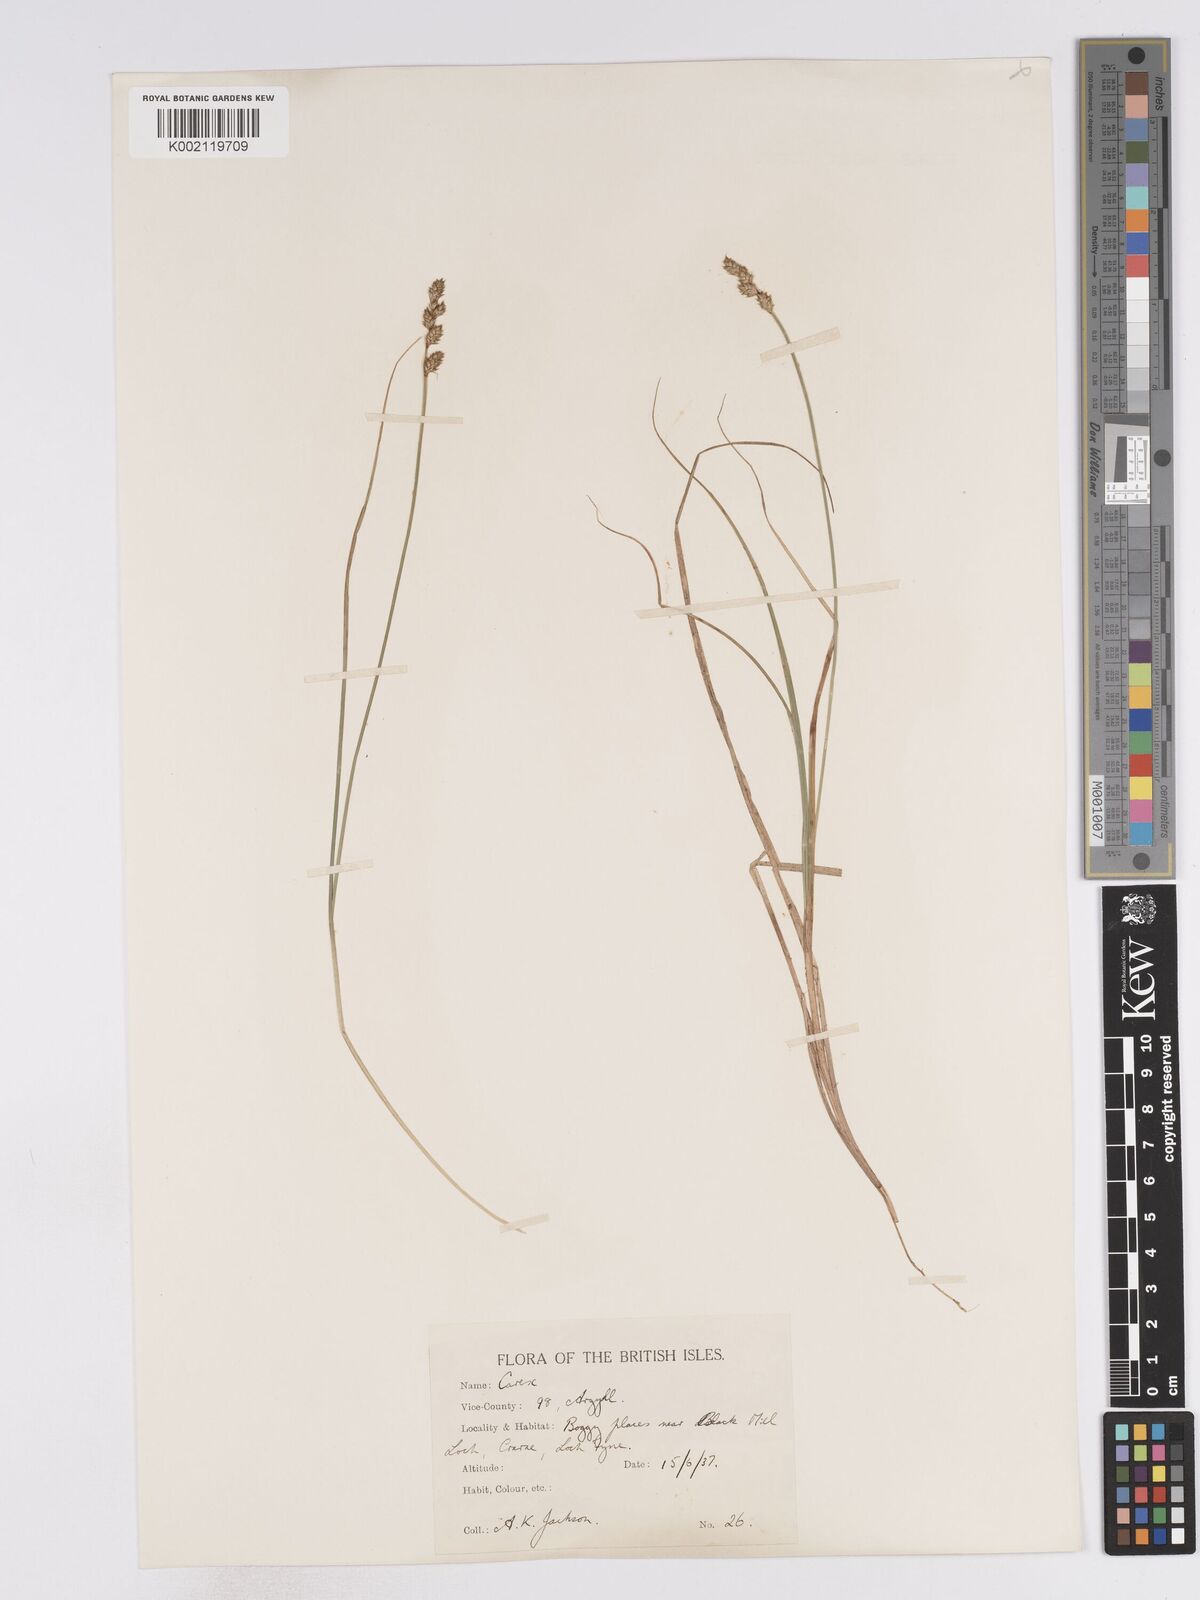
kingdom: Plantae
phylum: Tracheophyta
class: Liliopsida
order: Poales
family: Cyperaceae
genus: Carex
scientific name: Carex curta
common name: White sedge
